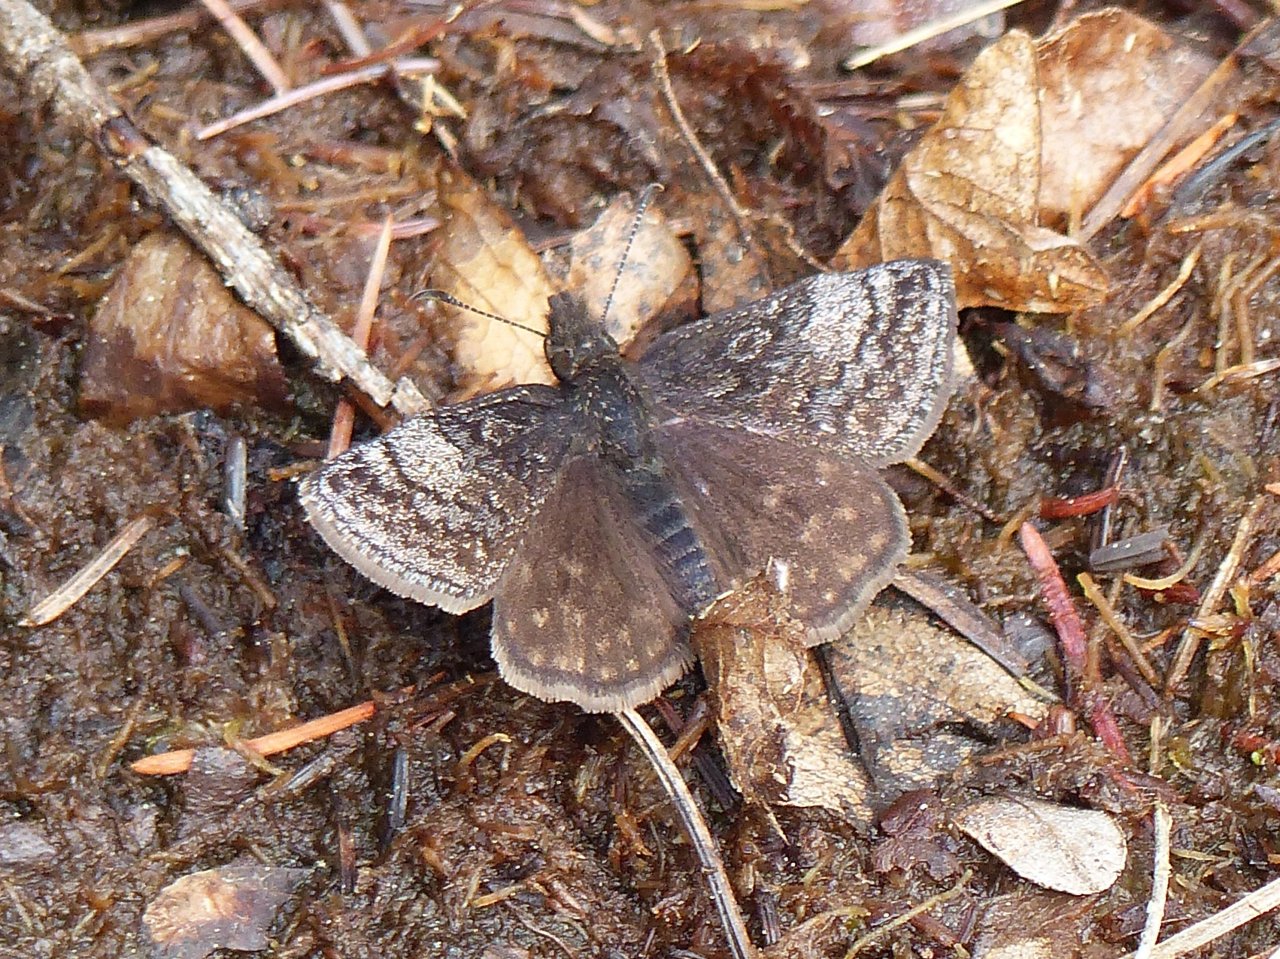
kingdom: Animalia
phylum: Arthropoda
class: Insecta
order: Lepidoptera
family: Hesperiidae
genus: Erynnis
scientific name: Erynnis icelus
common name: Dreamy Duskywing
